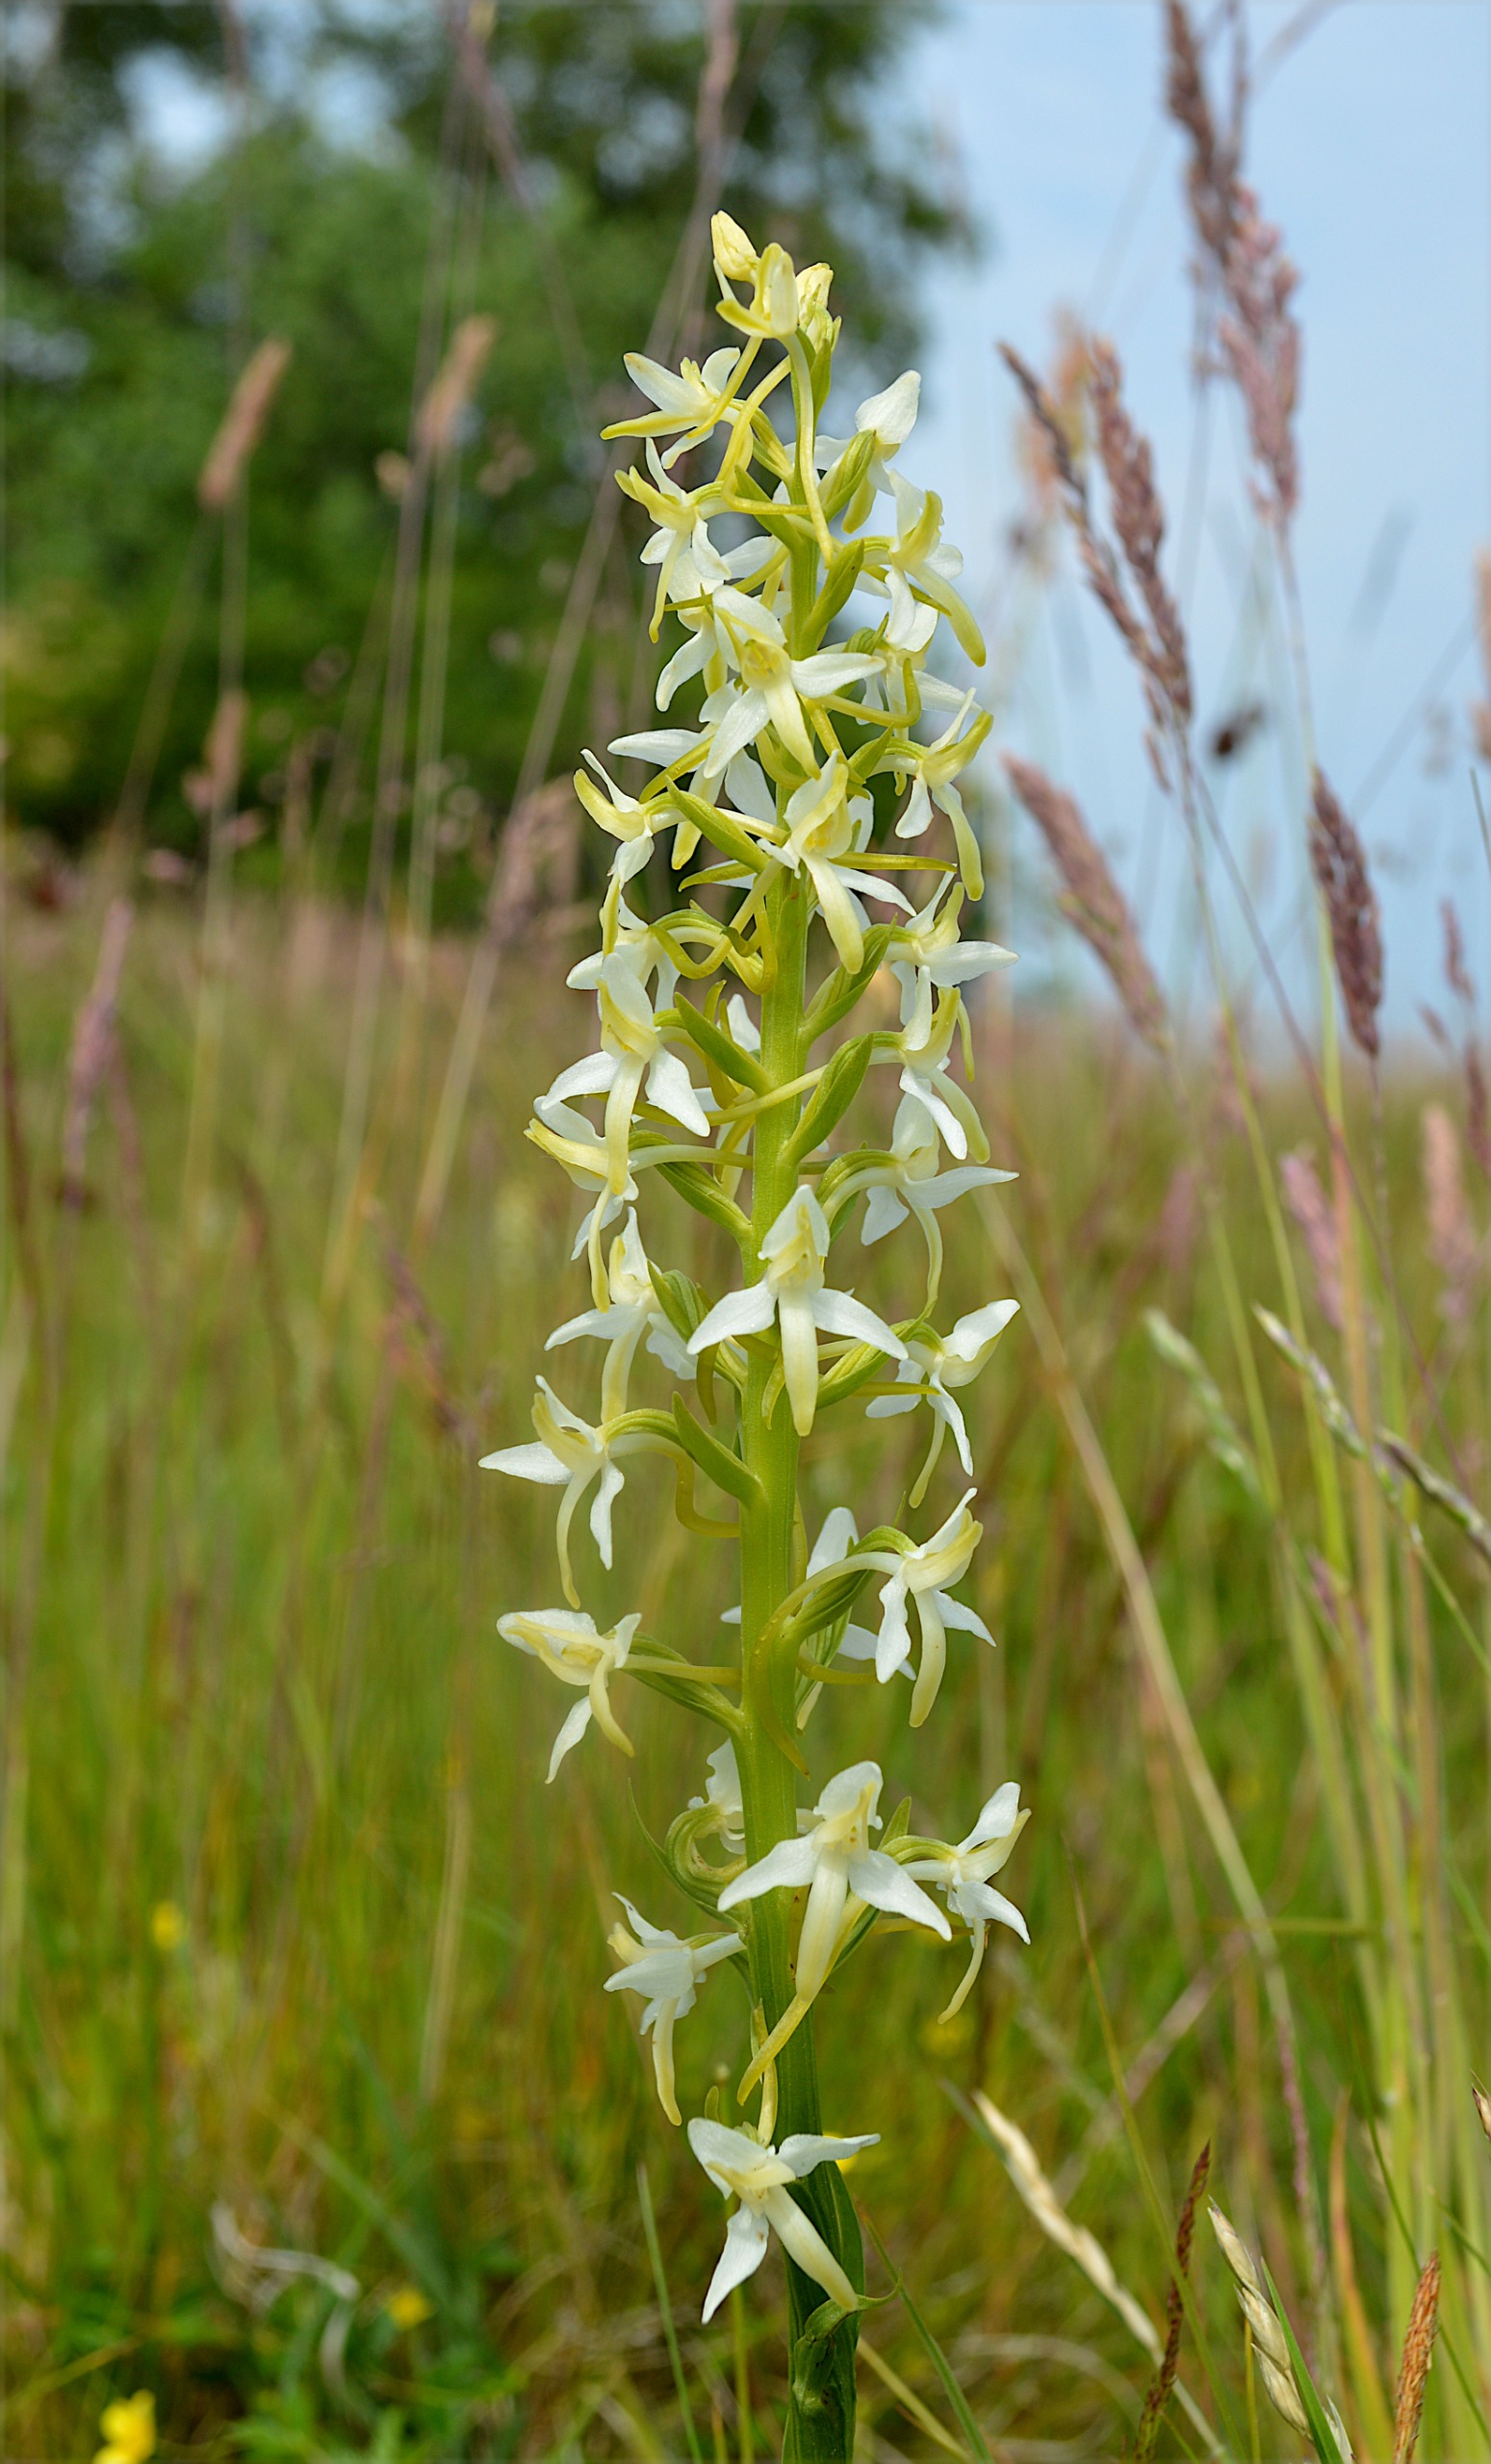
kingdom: Plantae
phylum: Tracheophyta
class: Liliopsida
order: Asparagales
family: Orchidaceae
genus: Platanthera
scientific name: Platanthera bifolia
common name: Bakke-gøgelilje
